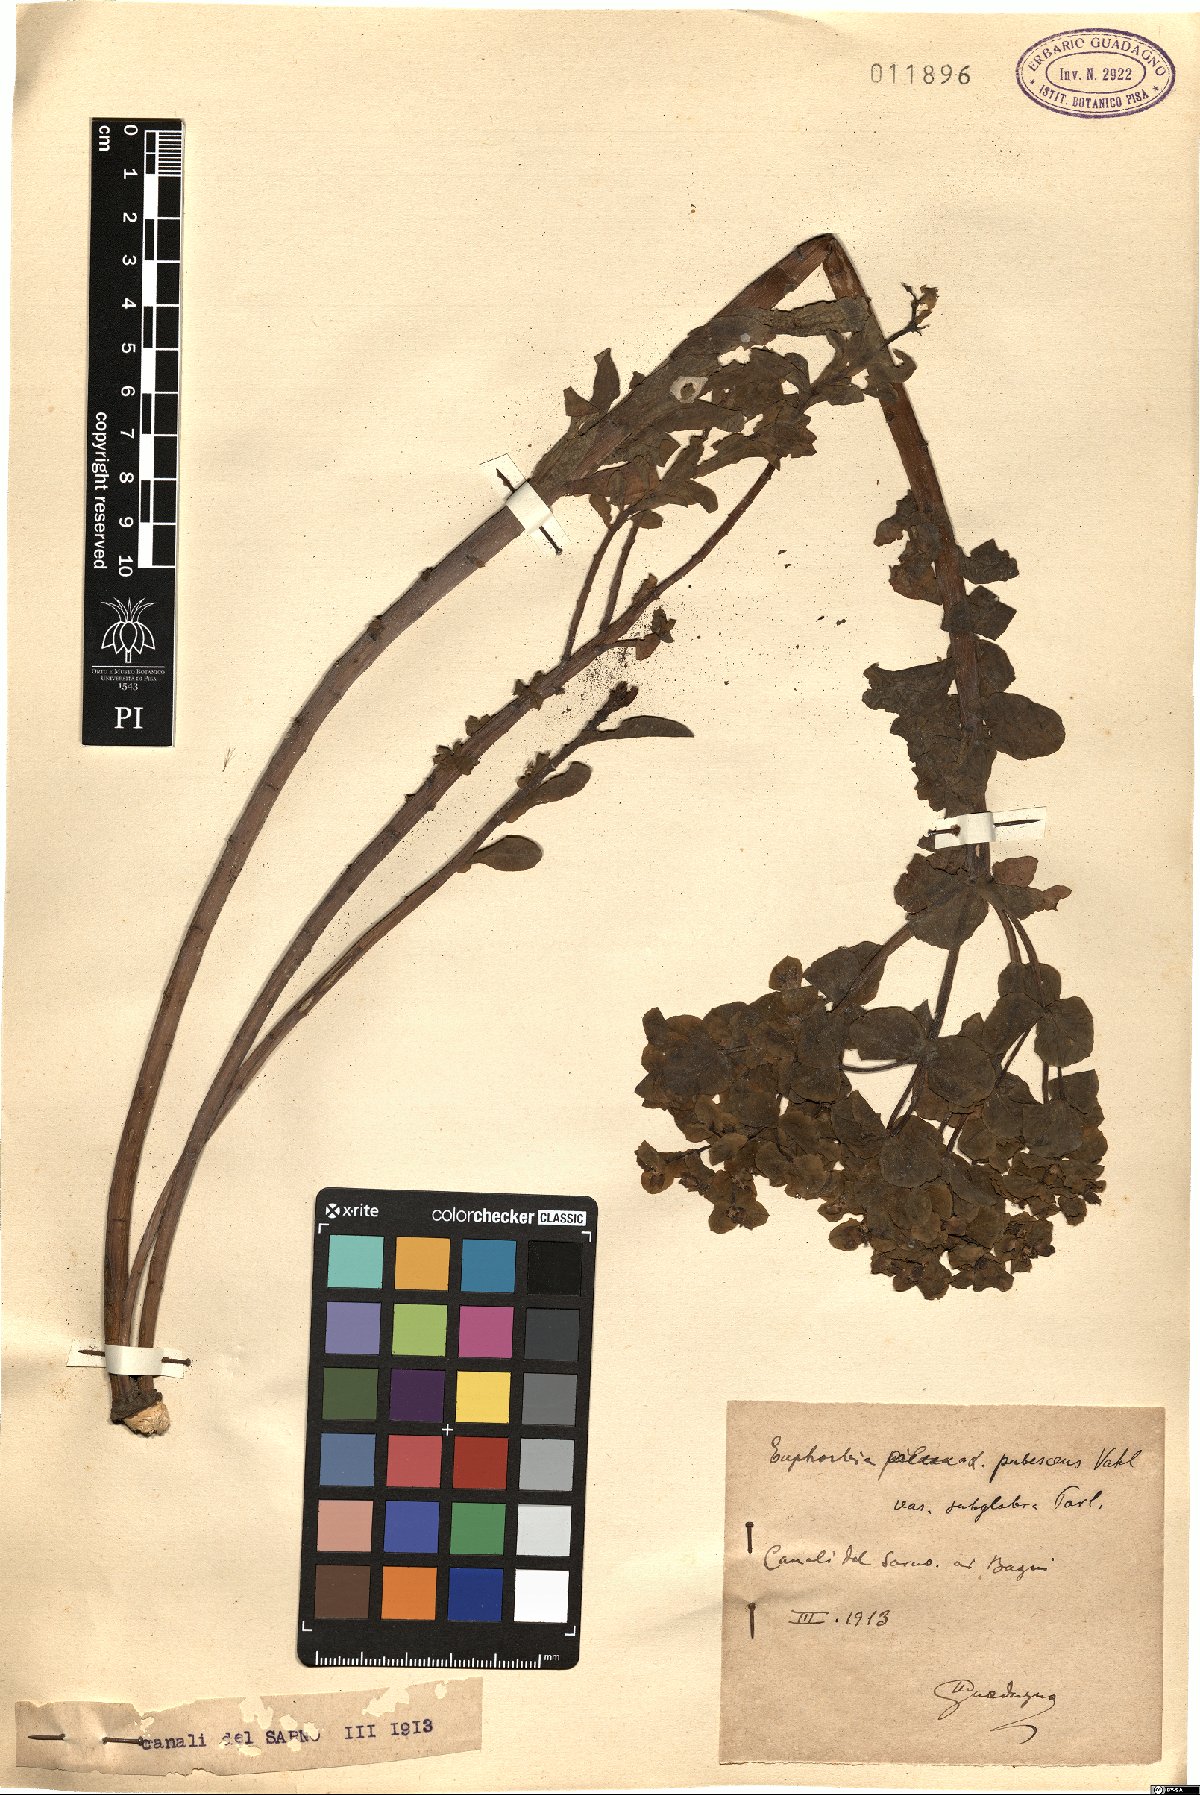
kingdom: Plantae
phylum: Tracheophyta
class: Magnoliopsida
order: Malpighiales
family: Euphorbiaceae
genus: Euphorbia
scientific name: Euphorbia hirsuta
